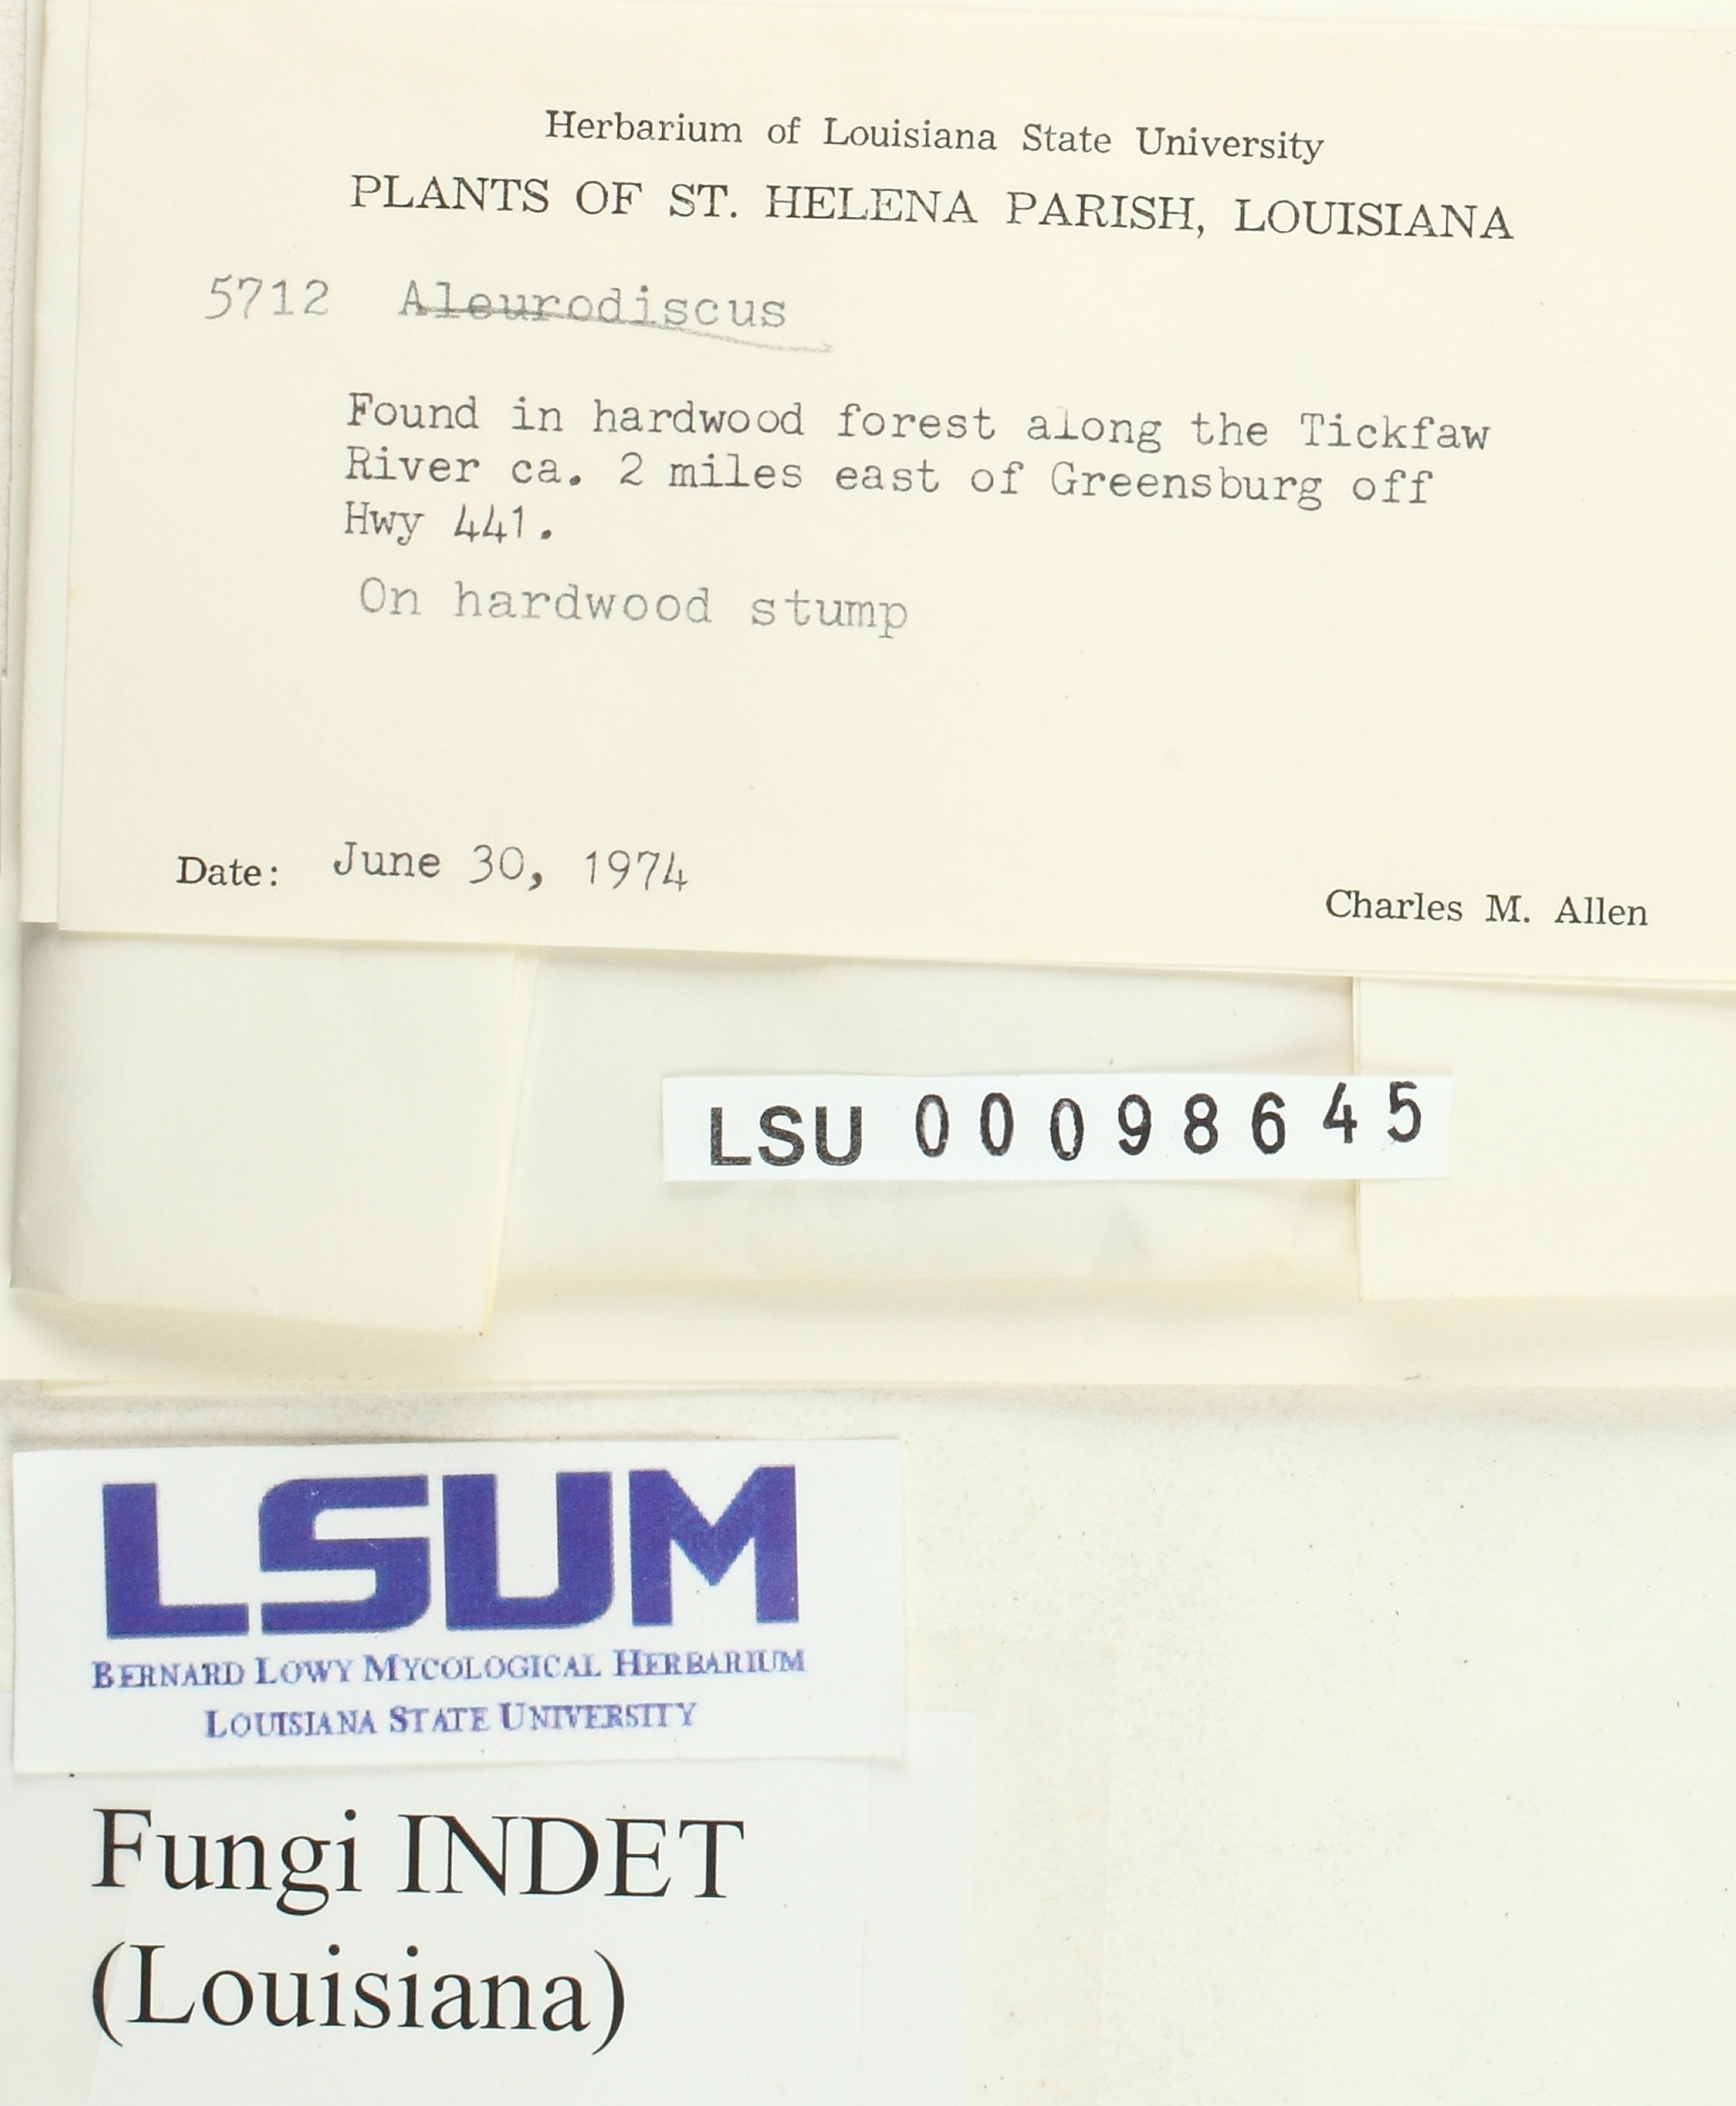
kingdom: Fungi
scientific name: Fungi
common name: Fungi
